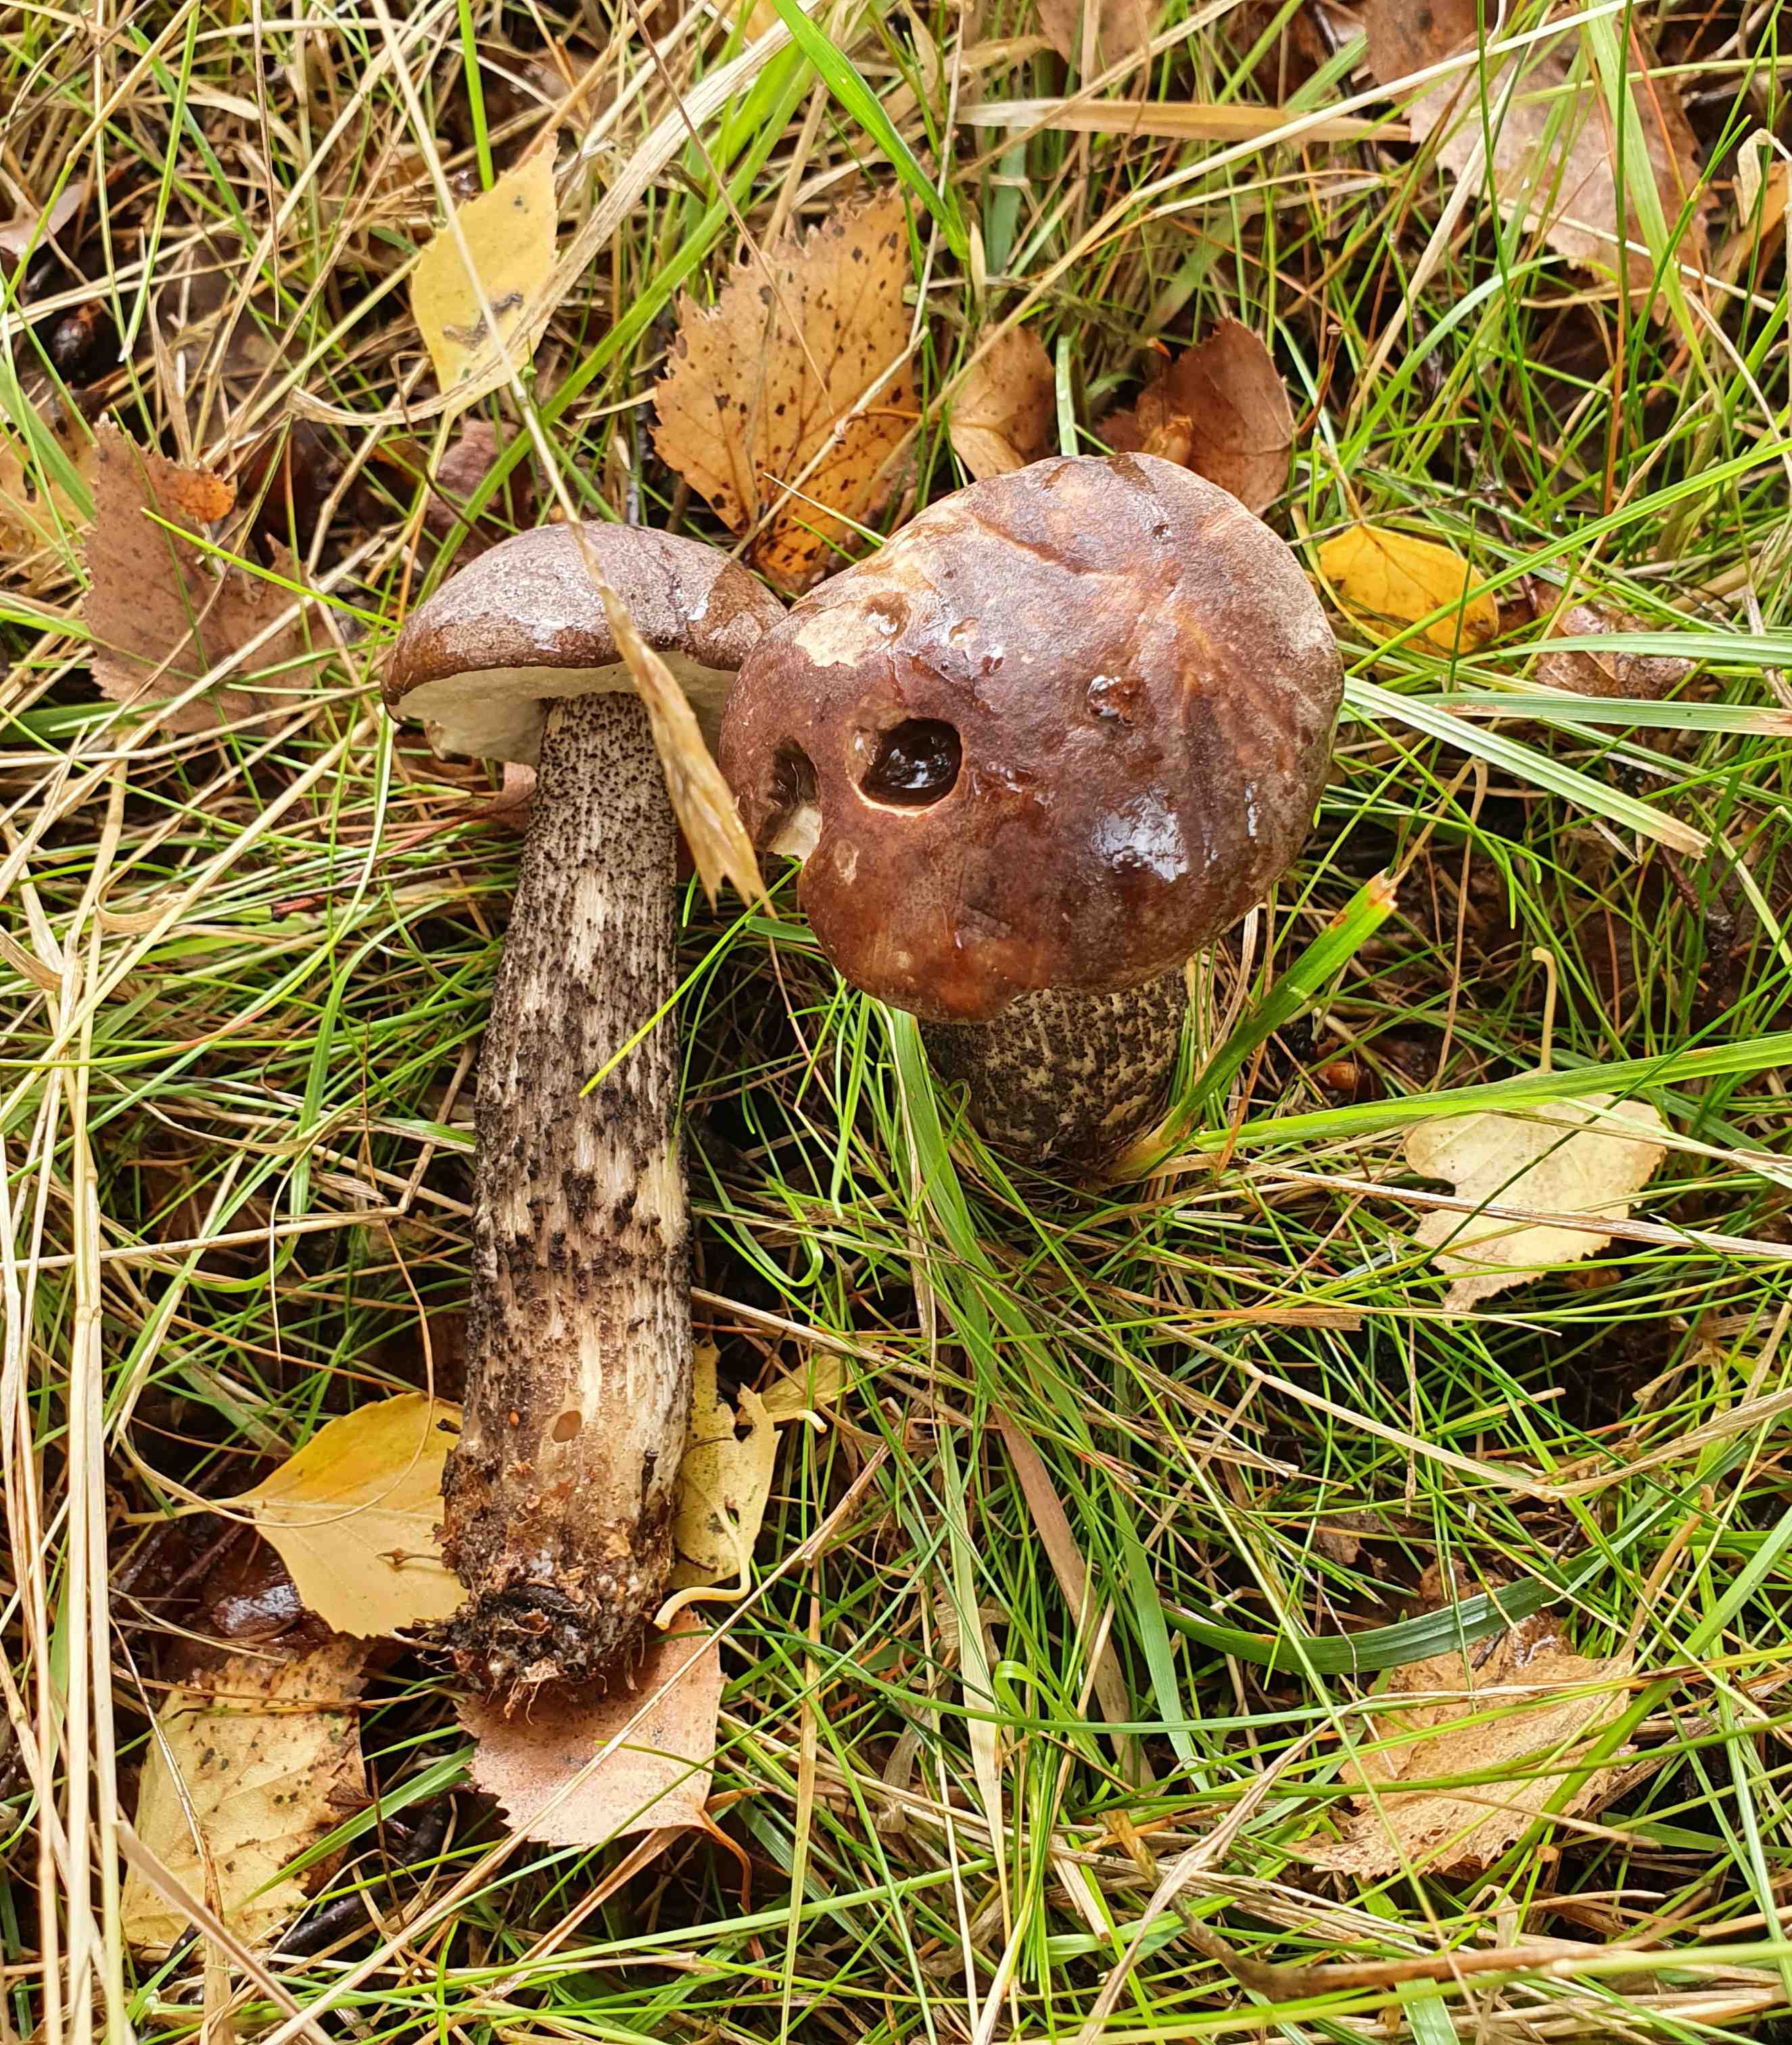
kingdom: Fungi
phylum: Basidiomycota
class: Agaricomycetes
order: Boletales
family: Boletaceae
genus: Leccinum
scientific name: Leccinum scabrum
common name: brun skælrørhat
